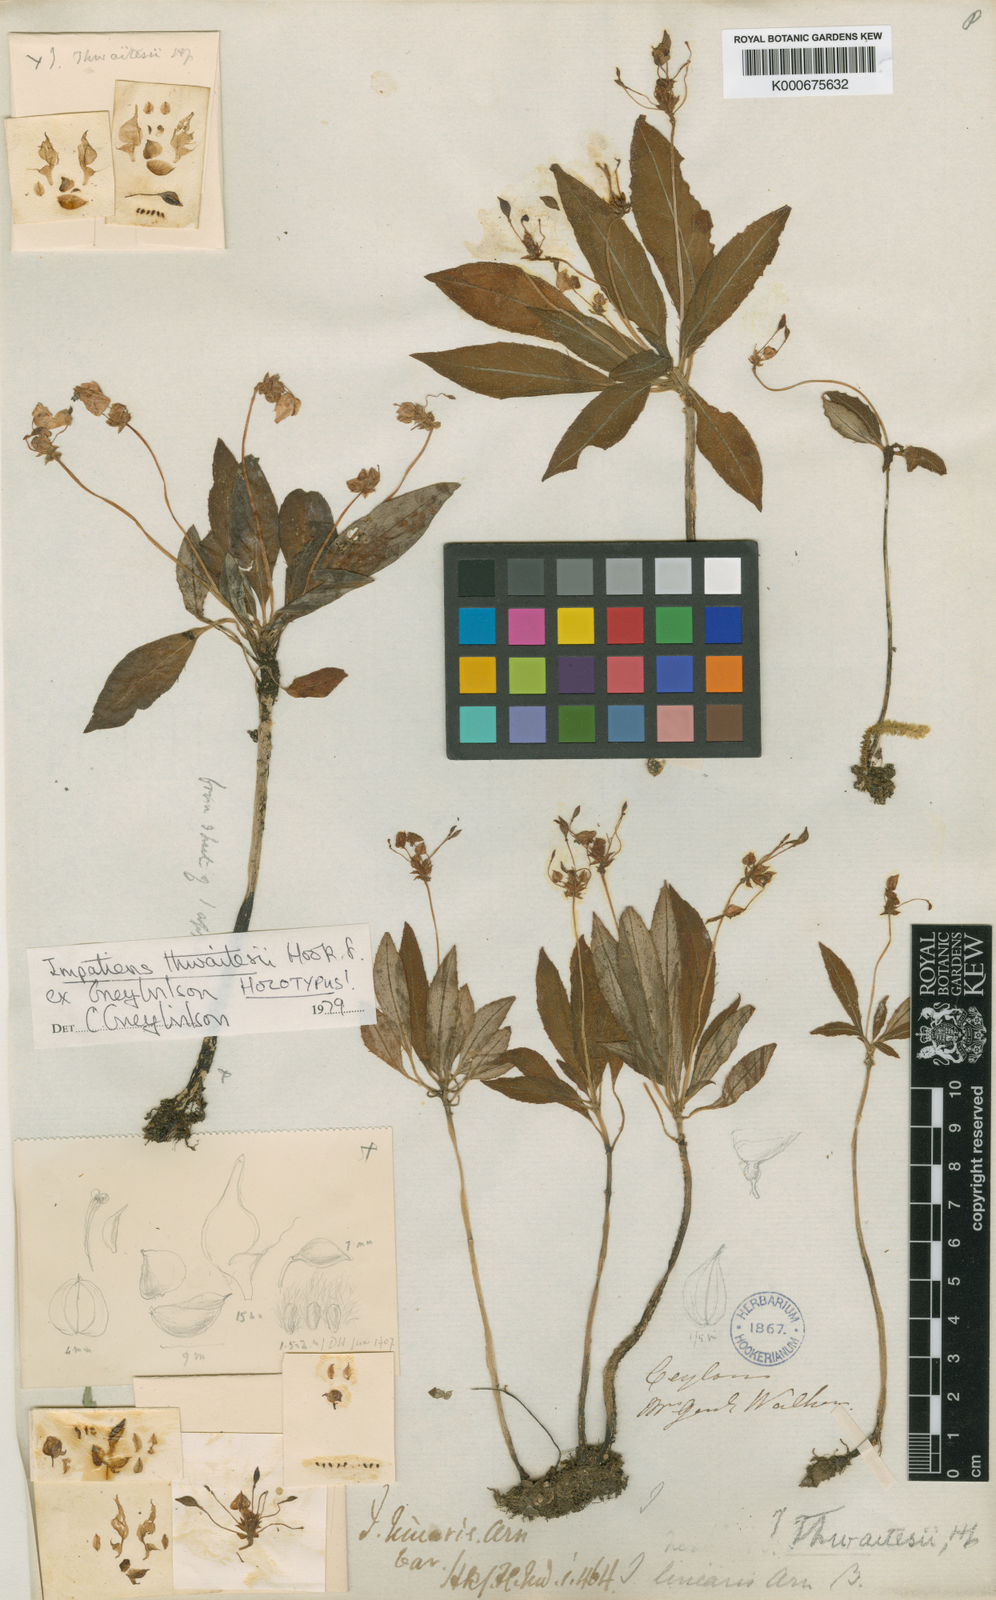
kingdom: Plantae
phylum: Tracheophyta
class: Magnoliopsida
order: Ericales
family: Balsaminaceae
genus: Impatiens
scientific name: Impatiens thwaitesii
